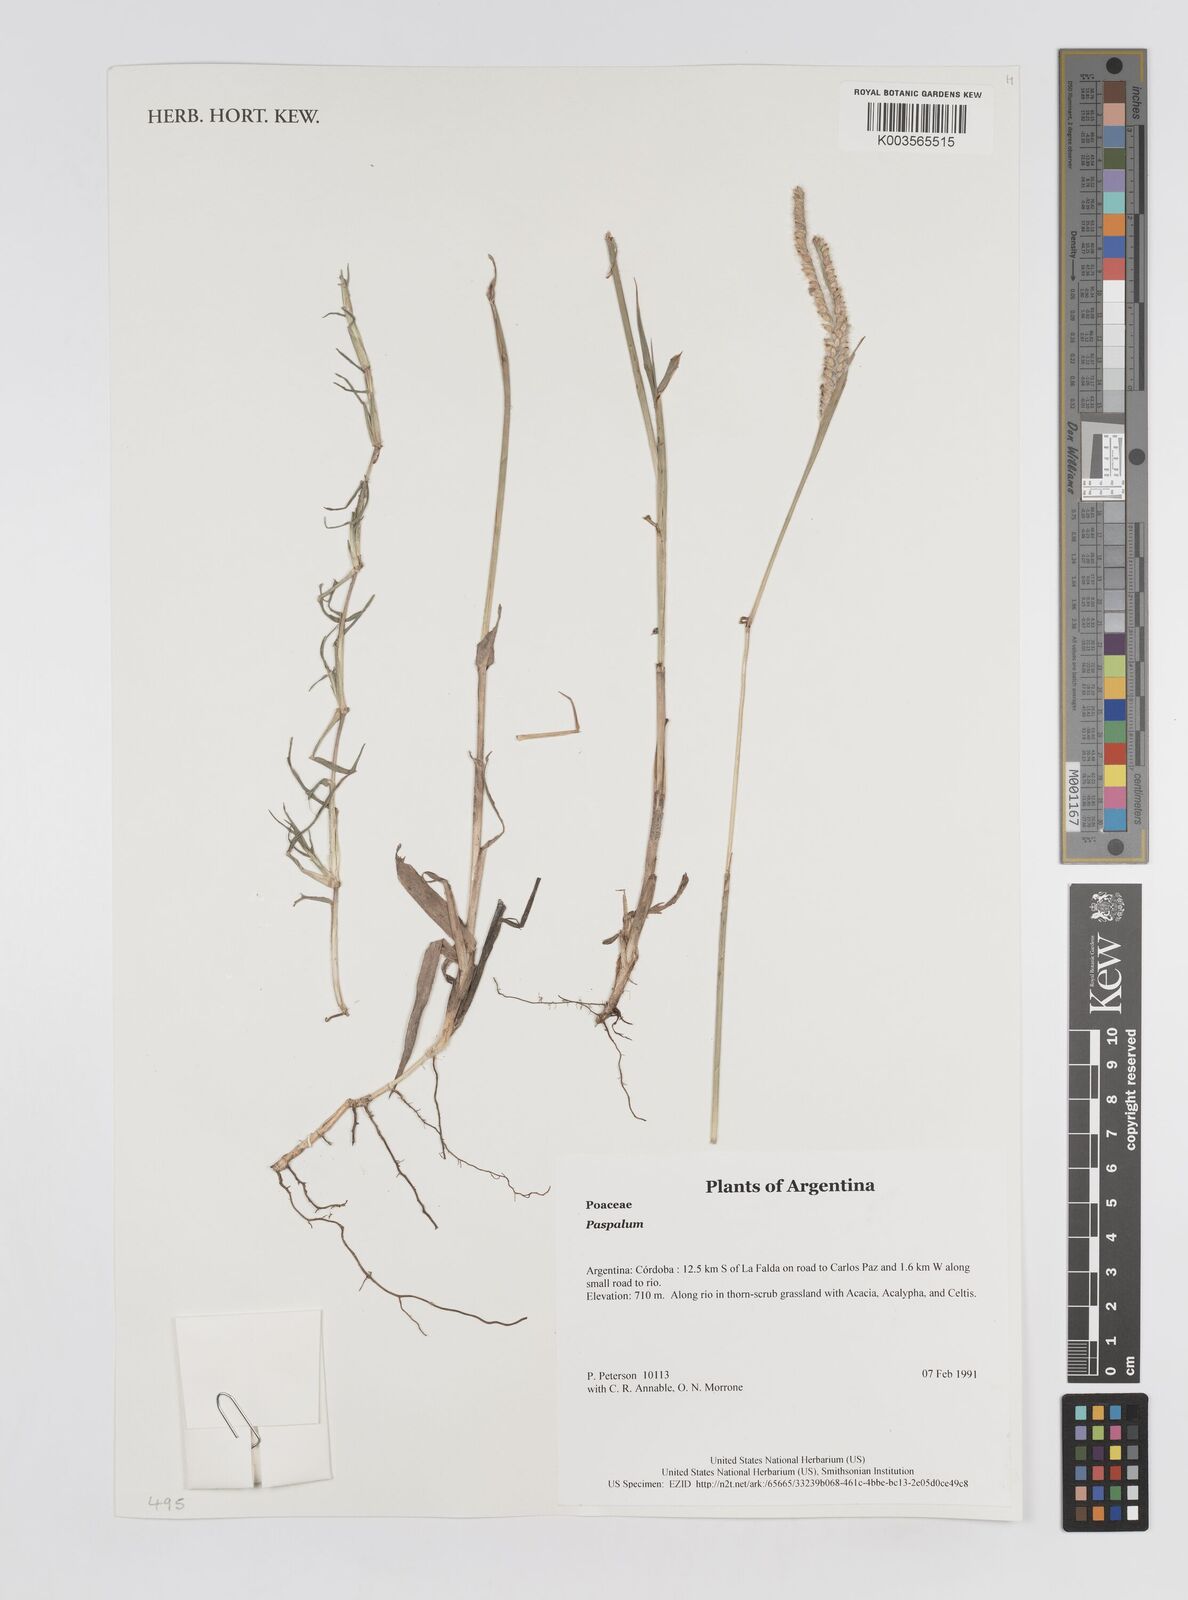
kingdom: Plantae
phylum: Tracheophyta
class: Liliopsida
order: Poales
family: Poaceae
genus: Paspalum
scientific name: Paspalum
